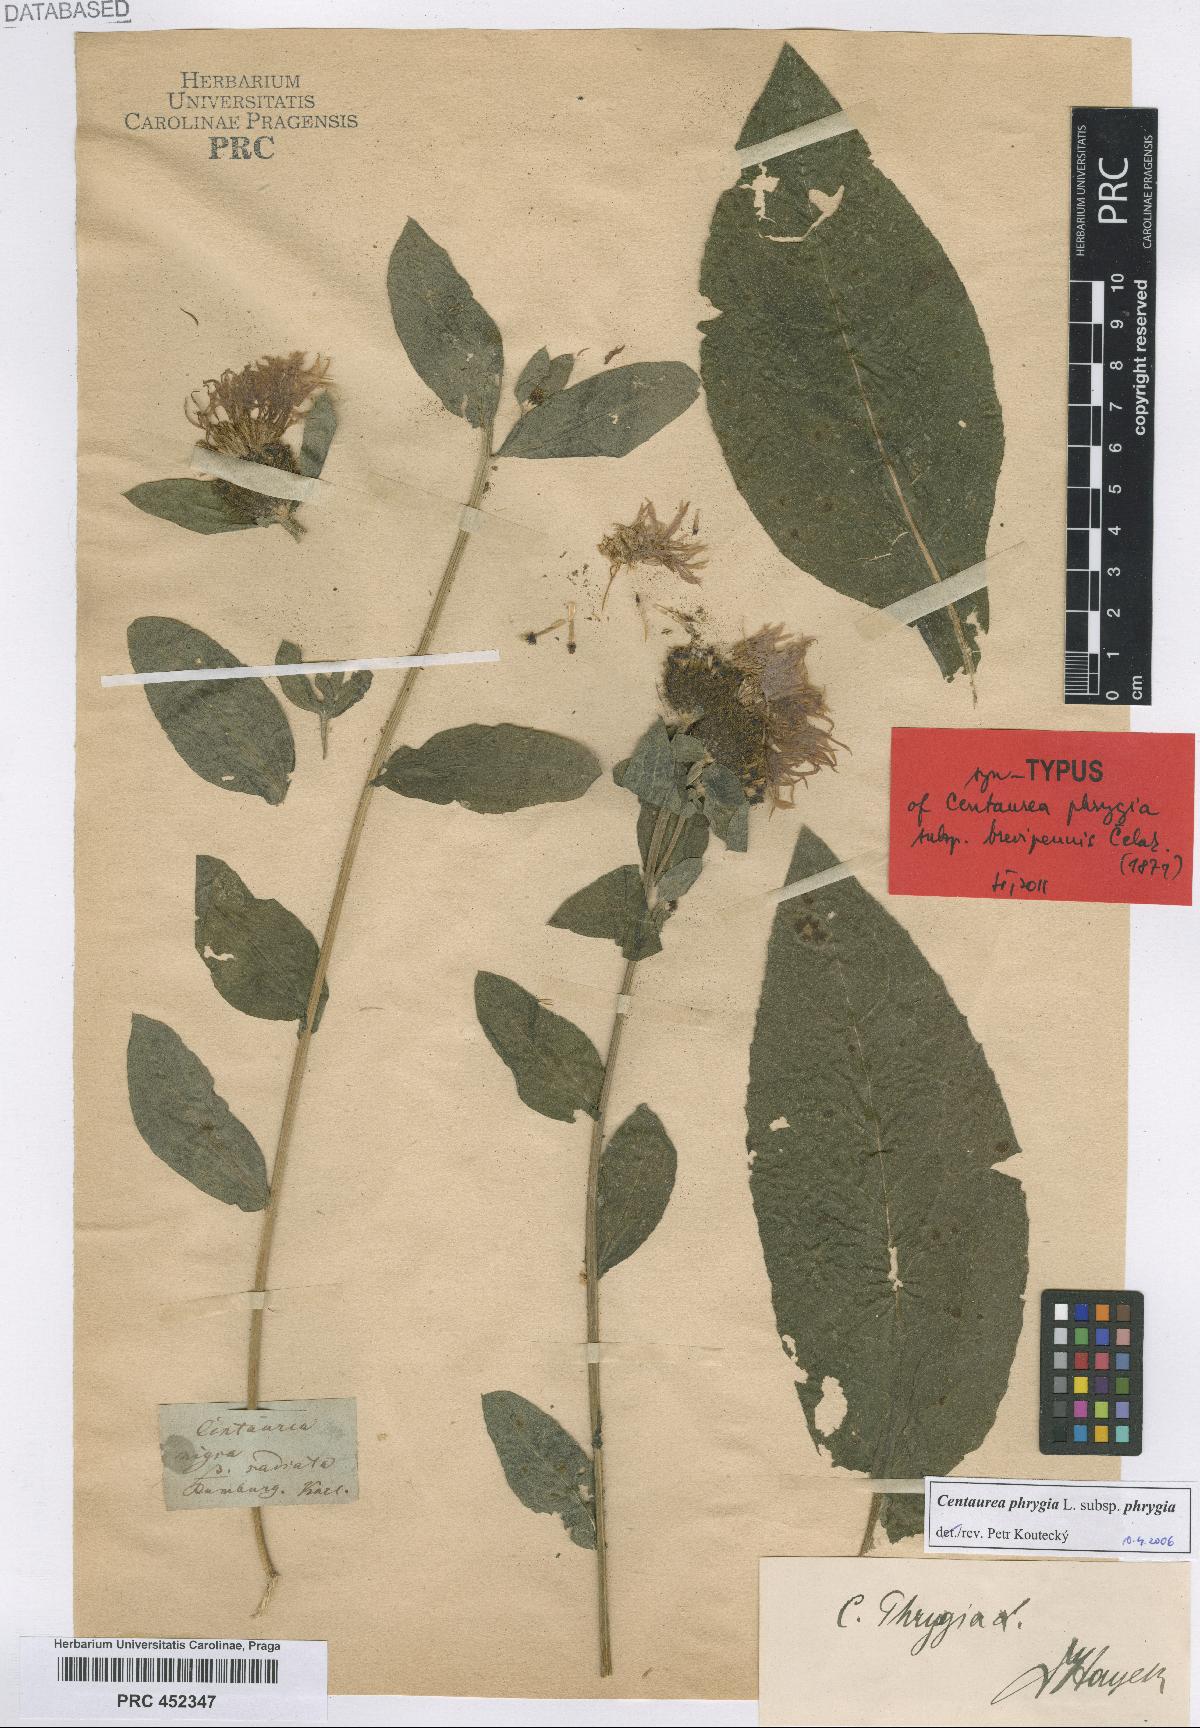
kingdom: Plantae
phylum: Tracheophyta
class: Magnoliopsida
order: Asterales
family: Asteraceae
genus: Centaurea
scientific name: Centaurea phrygia
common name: Wig knapweed
